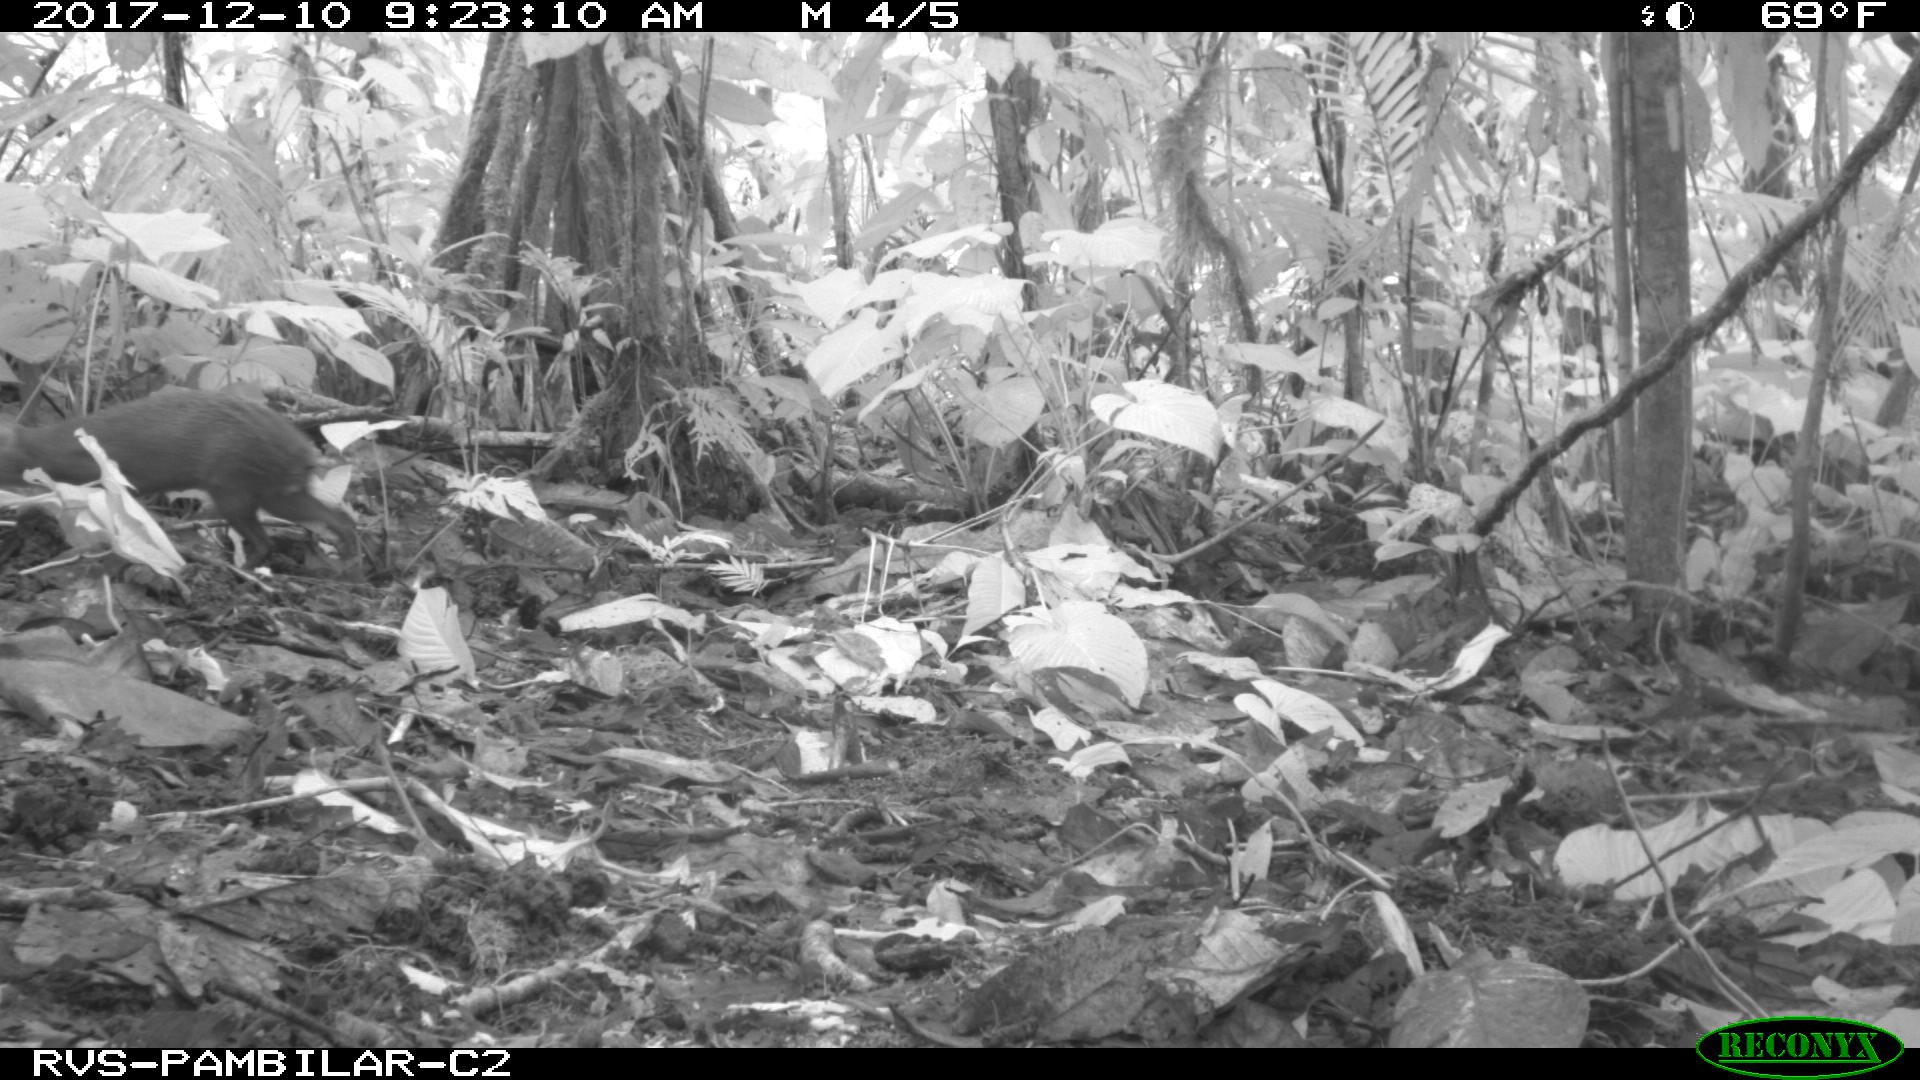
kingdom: Animalia
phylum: Chordata
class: Mammalia
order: Rodentia
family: Dasyproctidae
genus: Dasyprocta
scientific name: Dasyprocta punctata
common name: Central american agouti
